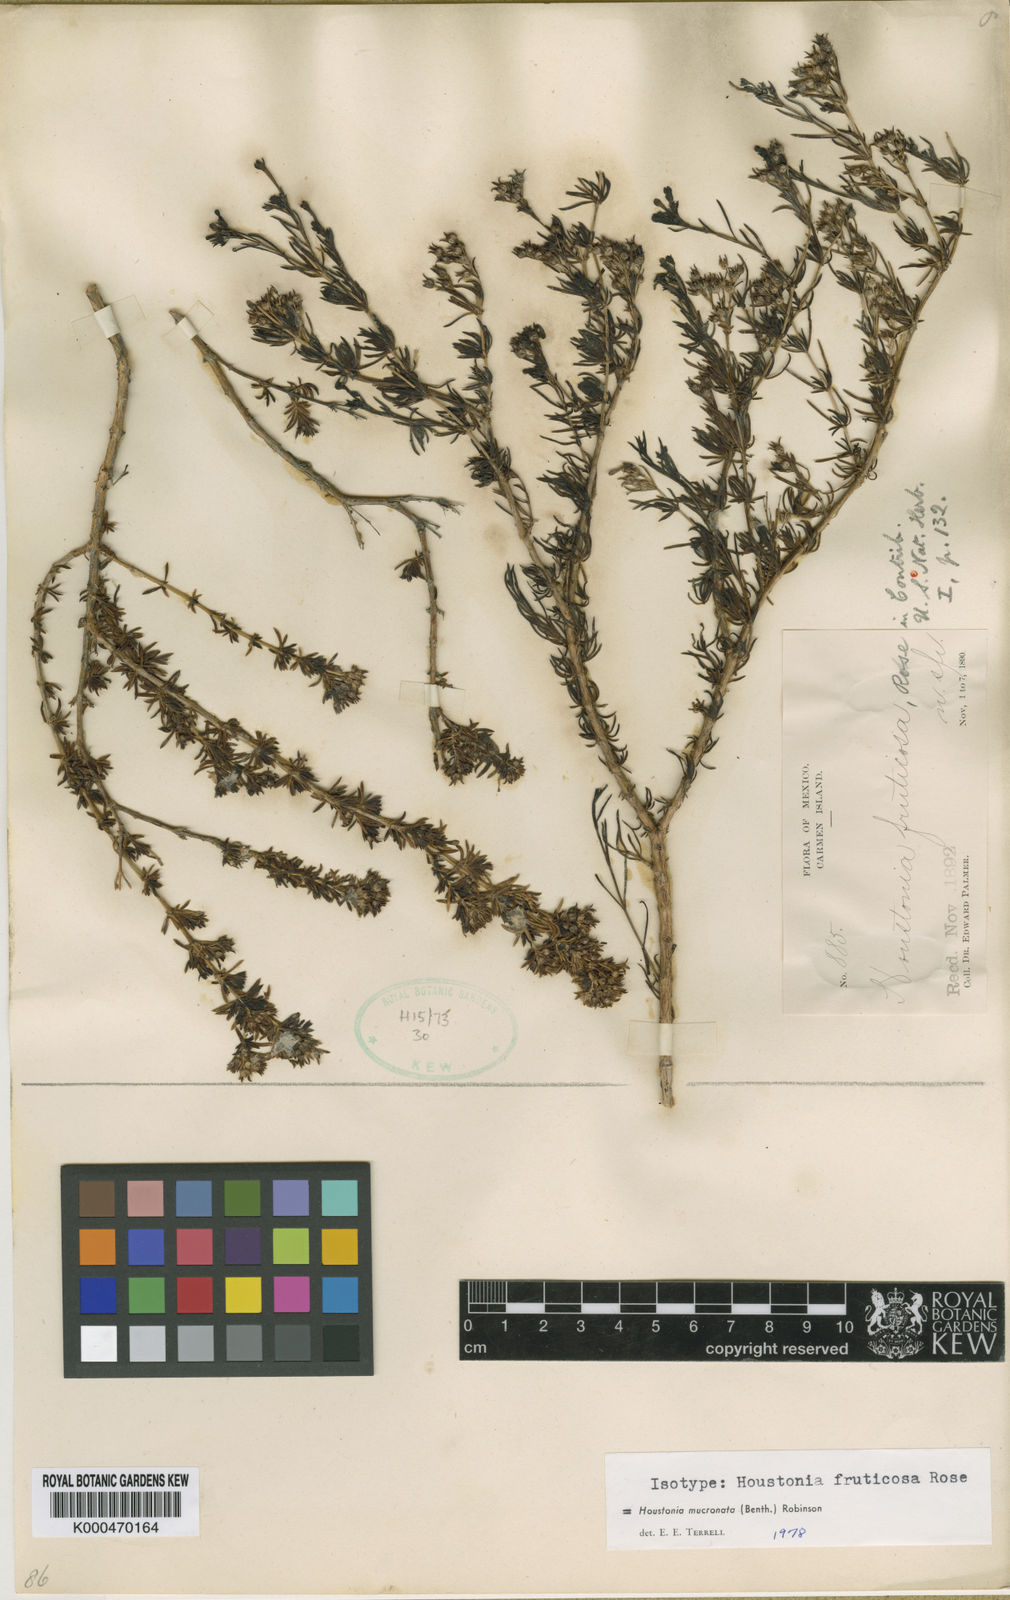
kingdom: Plantae
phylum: Tracheophyta
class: Magnoliopsida
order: Gentianales
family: Rubiaceae
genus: Stenotis
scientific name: Stenotis mucronata
